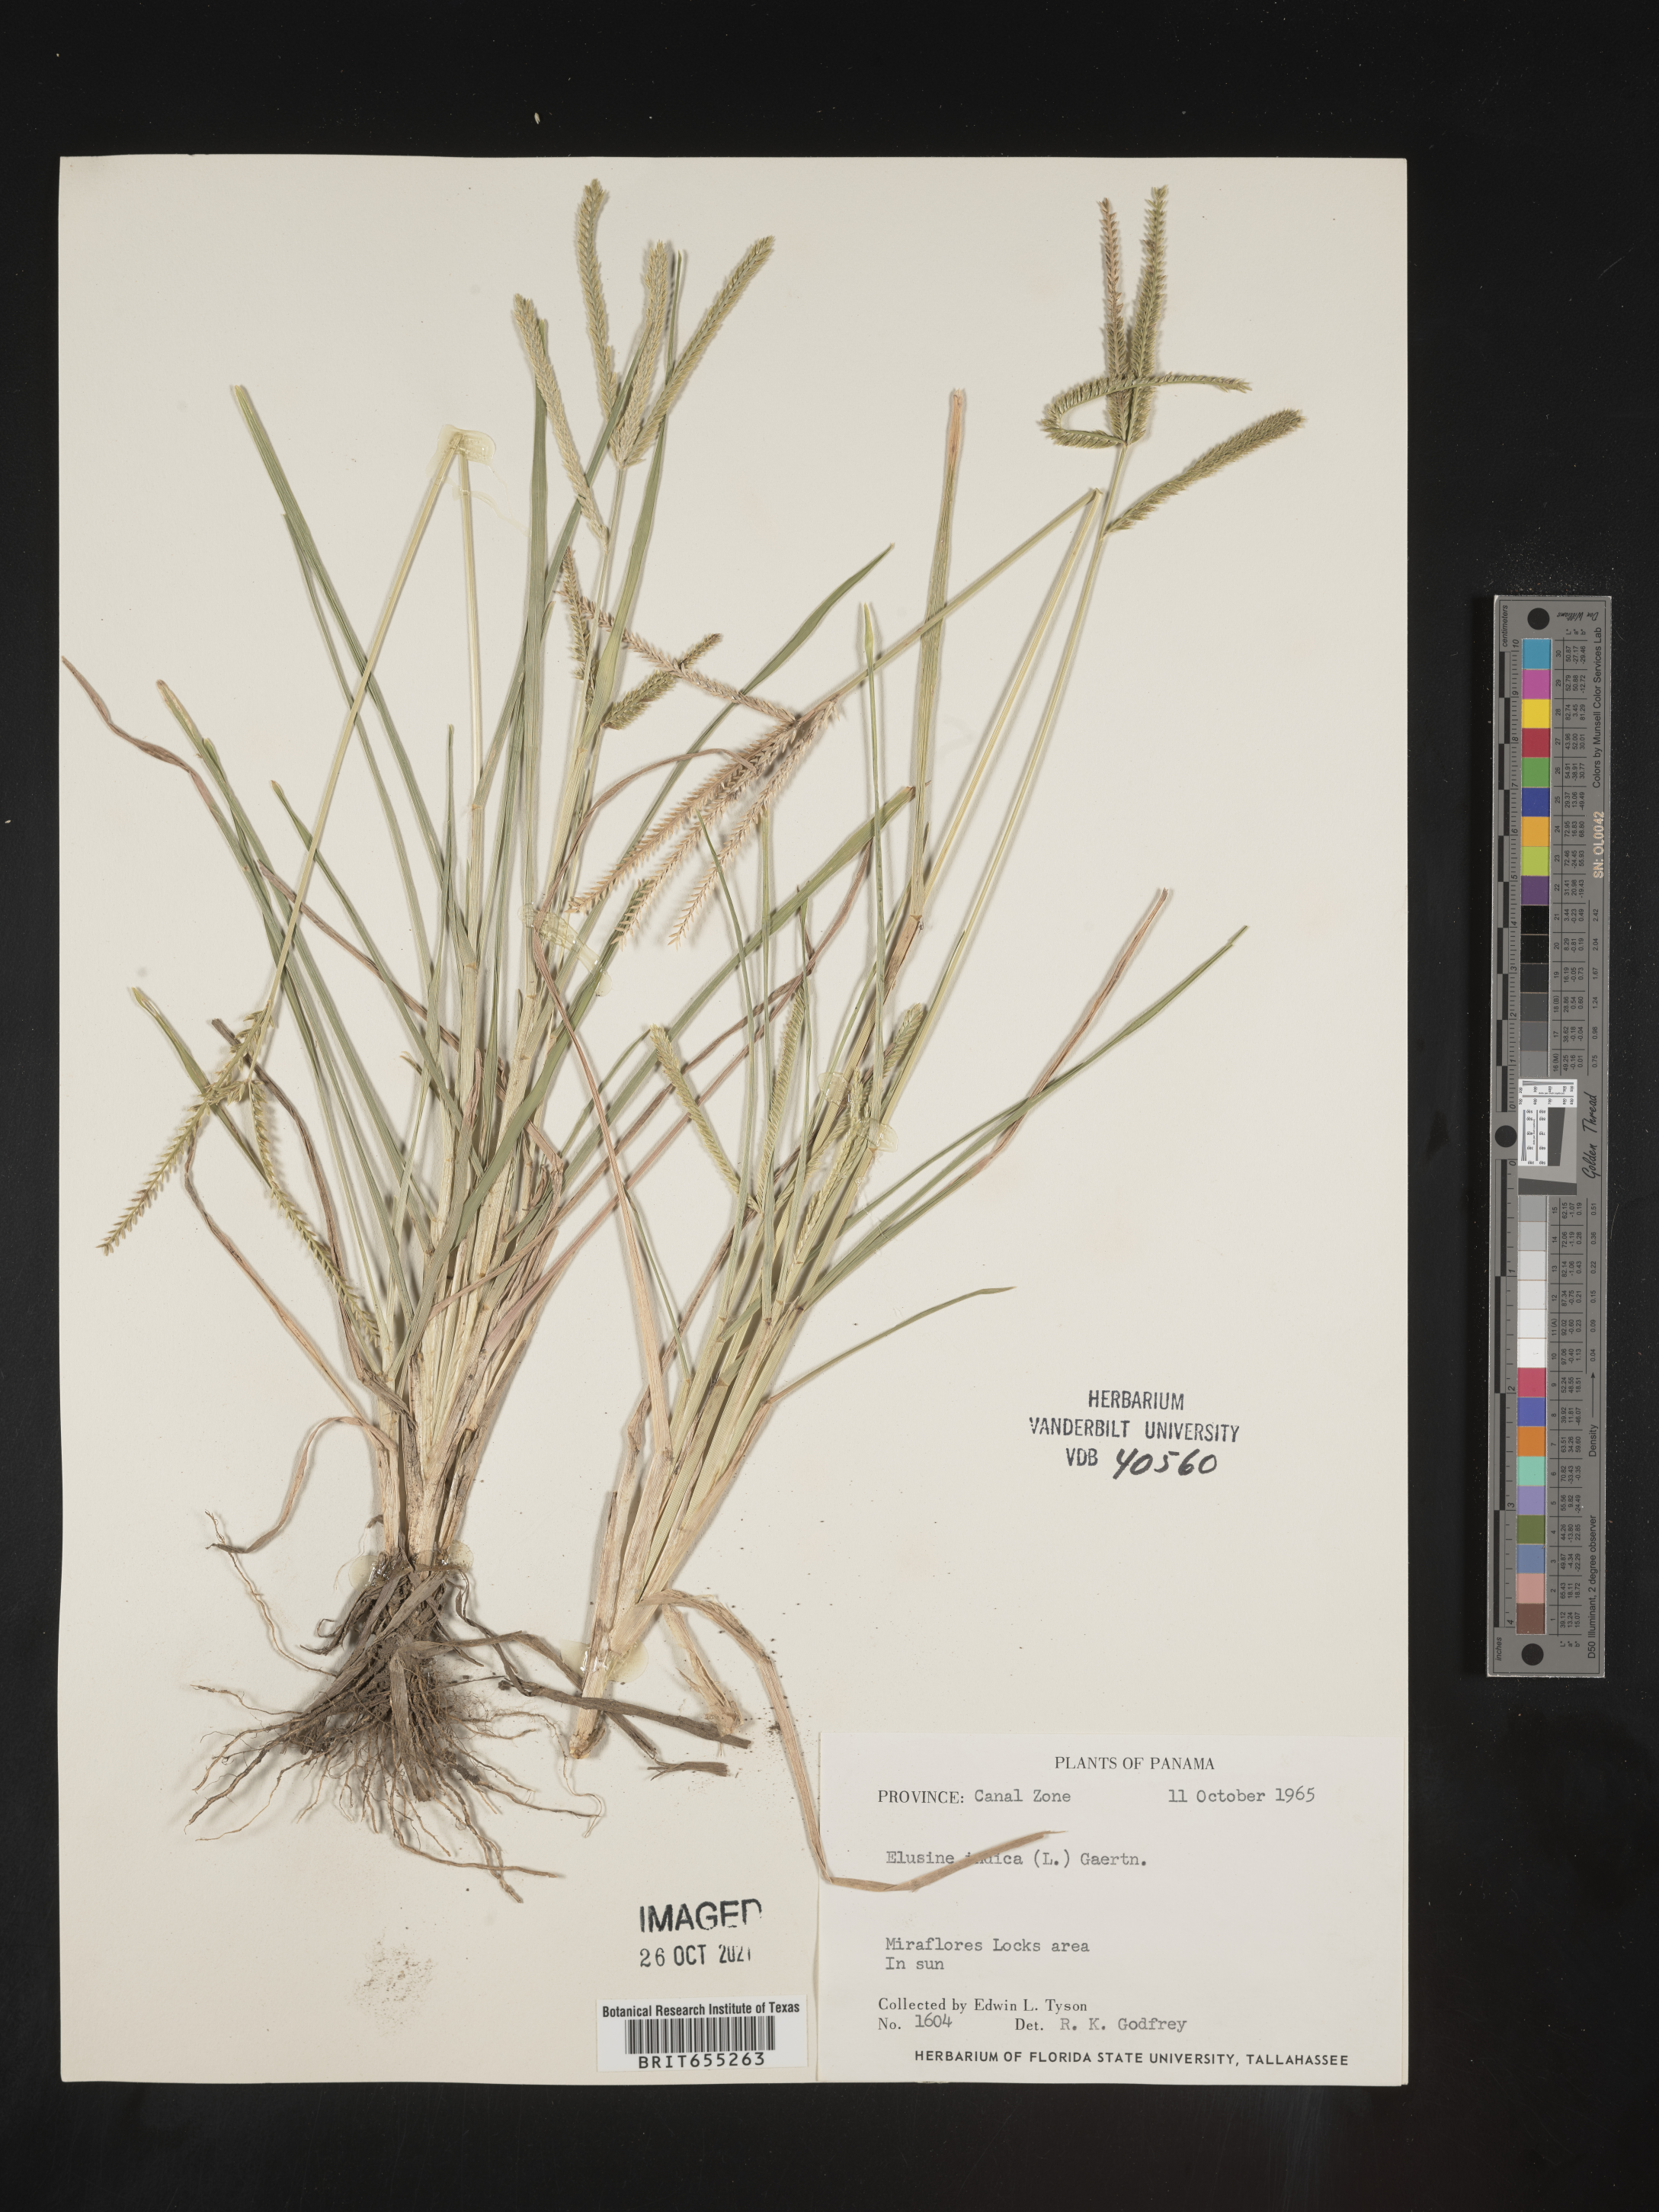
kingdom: Plantae
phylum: Tracheophyta
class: Liliopsida
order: Poales
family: Poaceae
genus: Eleusine
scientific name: Eleusine
